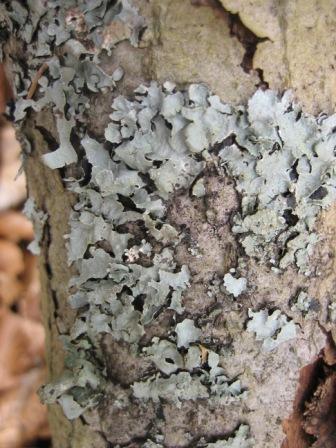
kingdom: Fungi
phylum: Ascomycota
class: Lecanoromycetes
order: Lecanorales
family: Parmeliaceae
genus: Parmelia
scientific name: Parmelia sulcata
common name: rynket skållav
